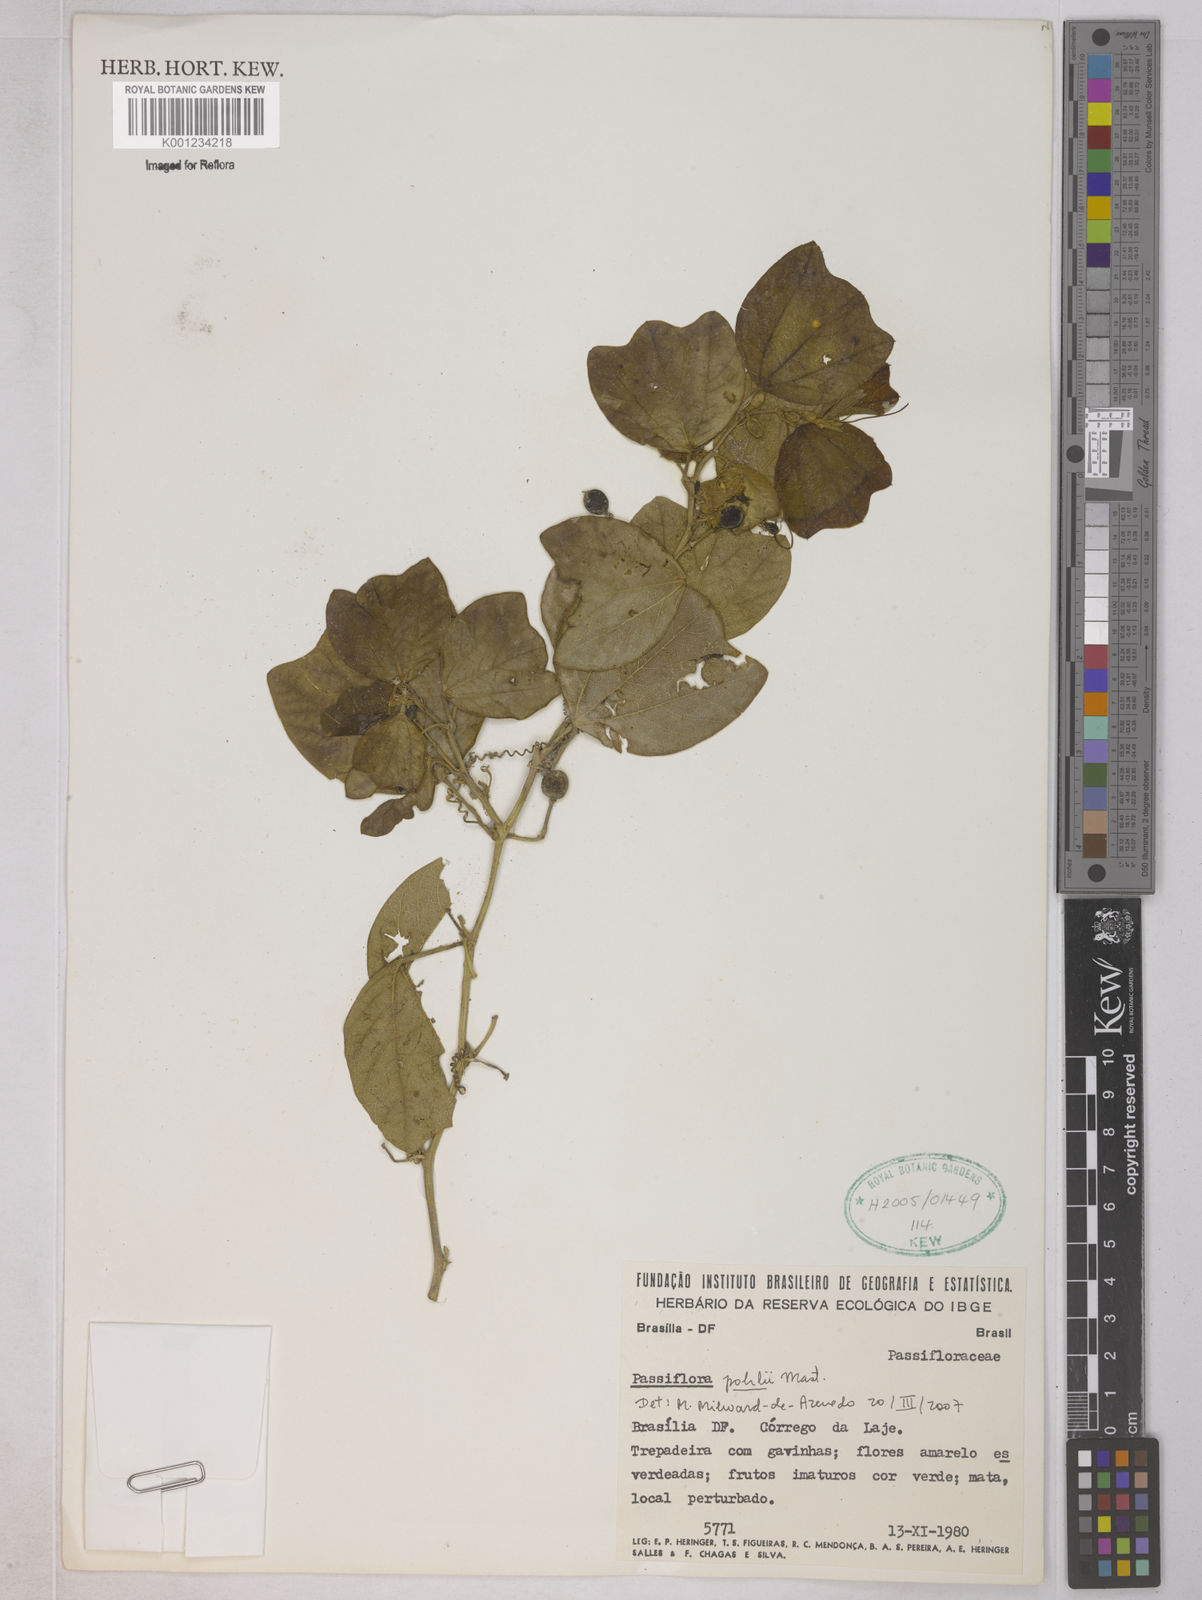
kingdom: Plantae
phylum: Tracheophyta
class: Magnoliopsida
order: Malpighiales
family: Passifloraceae
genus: Passiflora
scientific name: Passiflora pohlii
